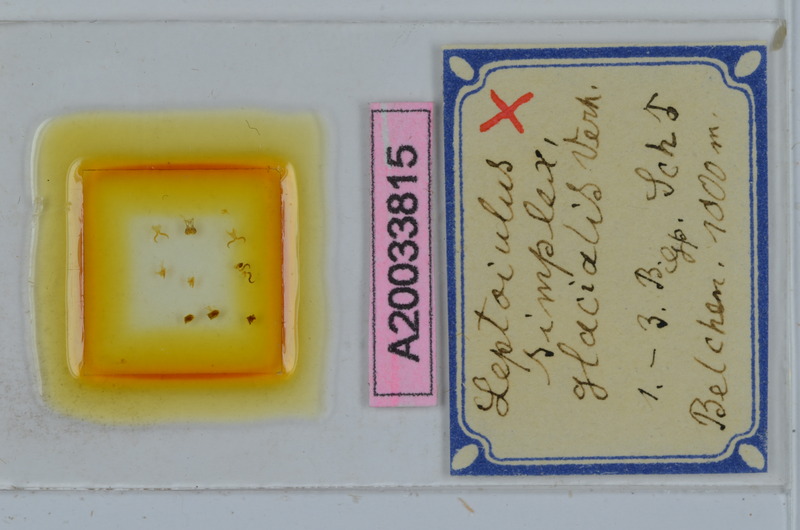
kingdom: Animalia
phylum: Arthropoda
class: Diplopoda
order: Julida
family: Julidae
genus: Leptoiulus
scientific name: Leptoiulus simplex
